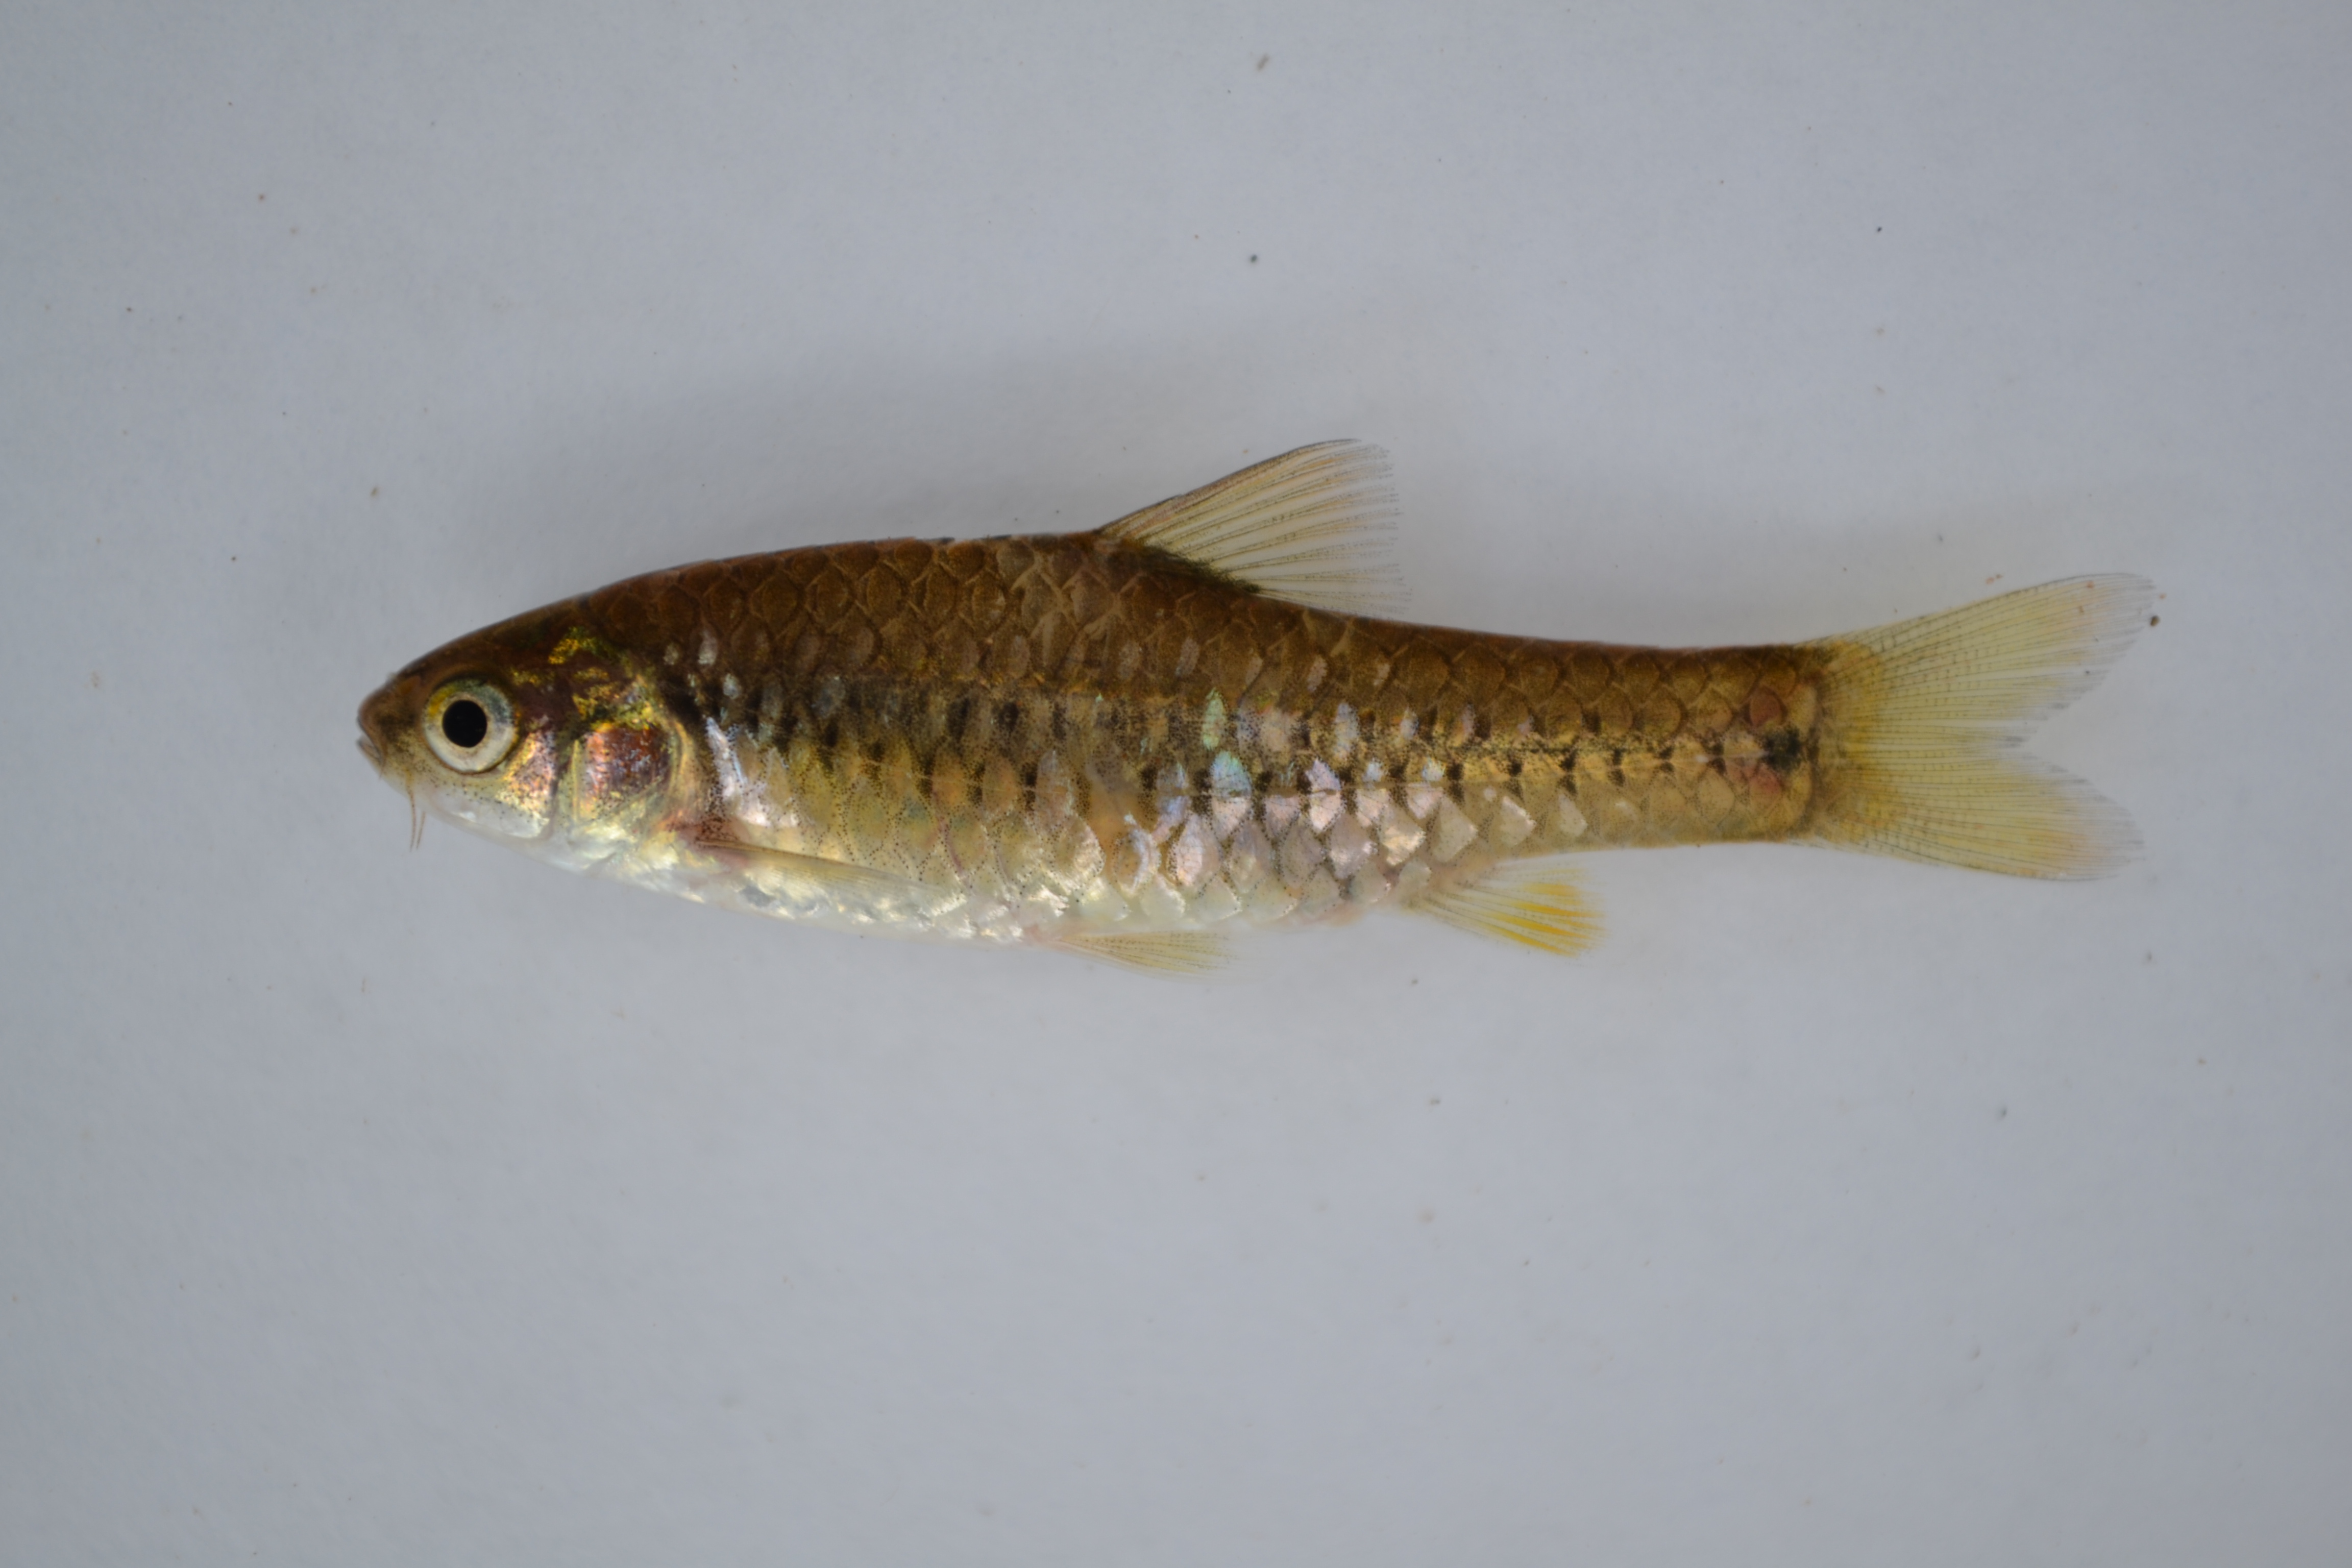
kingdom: Animalia
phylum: Chordata
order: Cypriniformes
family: Cyprinidae
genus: Enteromius
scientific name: Enteromius kerstenii
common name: Redspot barb
